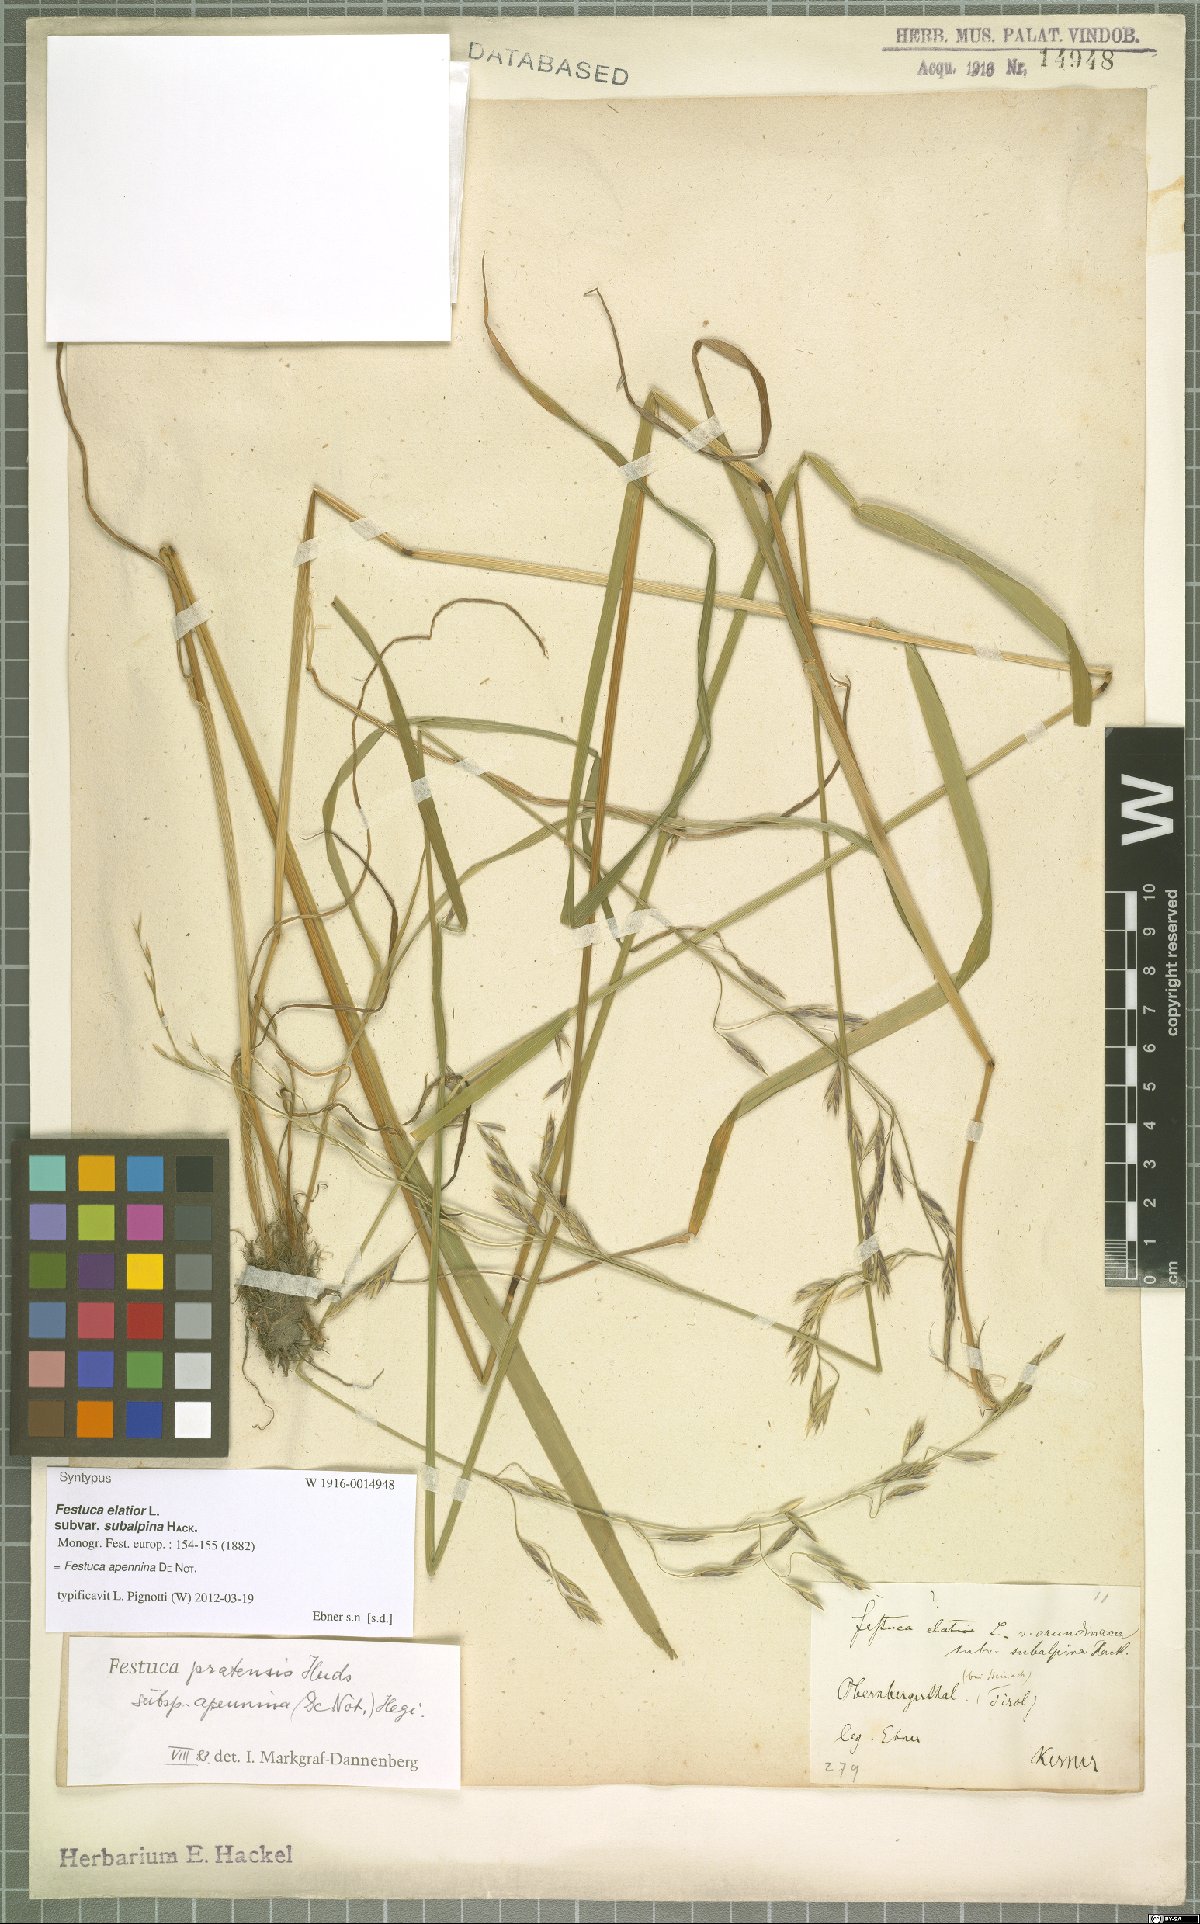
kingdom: Plantae
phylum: Tracheophyta
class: Liliopsida
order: Poales
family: Poaceae
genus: Lolium
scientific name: Lolium apenninum
